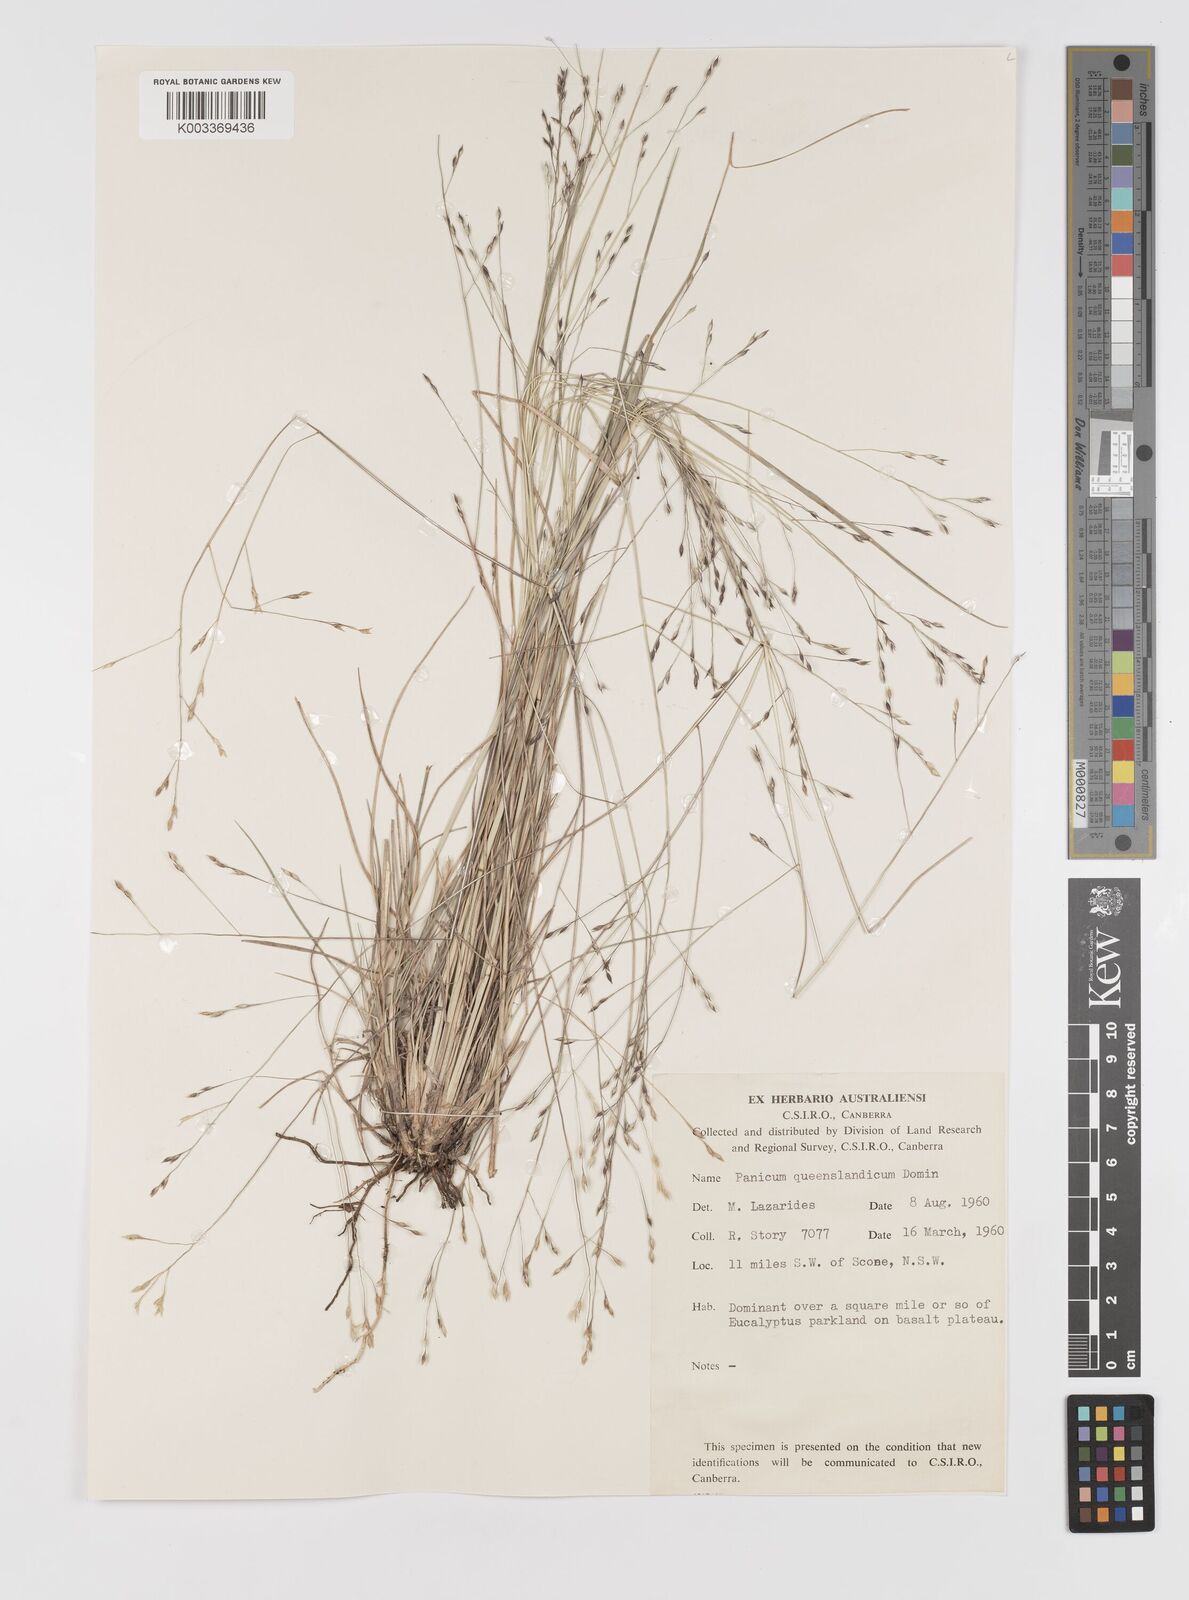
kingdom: Plantae
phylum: Tracheophyta
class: Liliopsida
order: Poales
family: Poaceae
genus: Panicum
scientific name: Panicum queenslandicum
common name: Yabila grass
